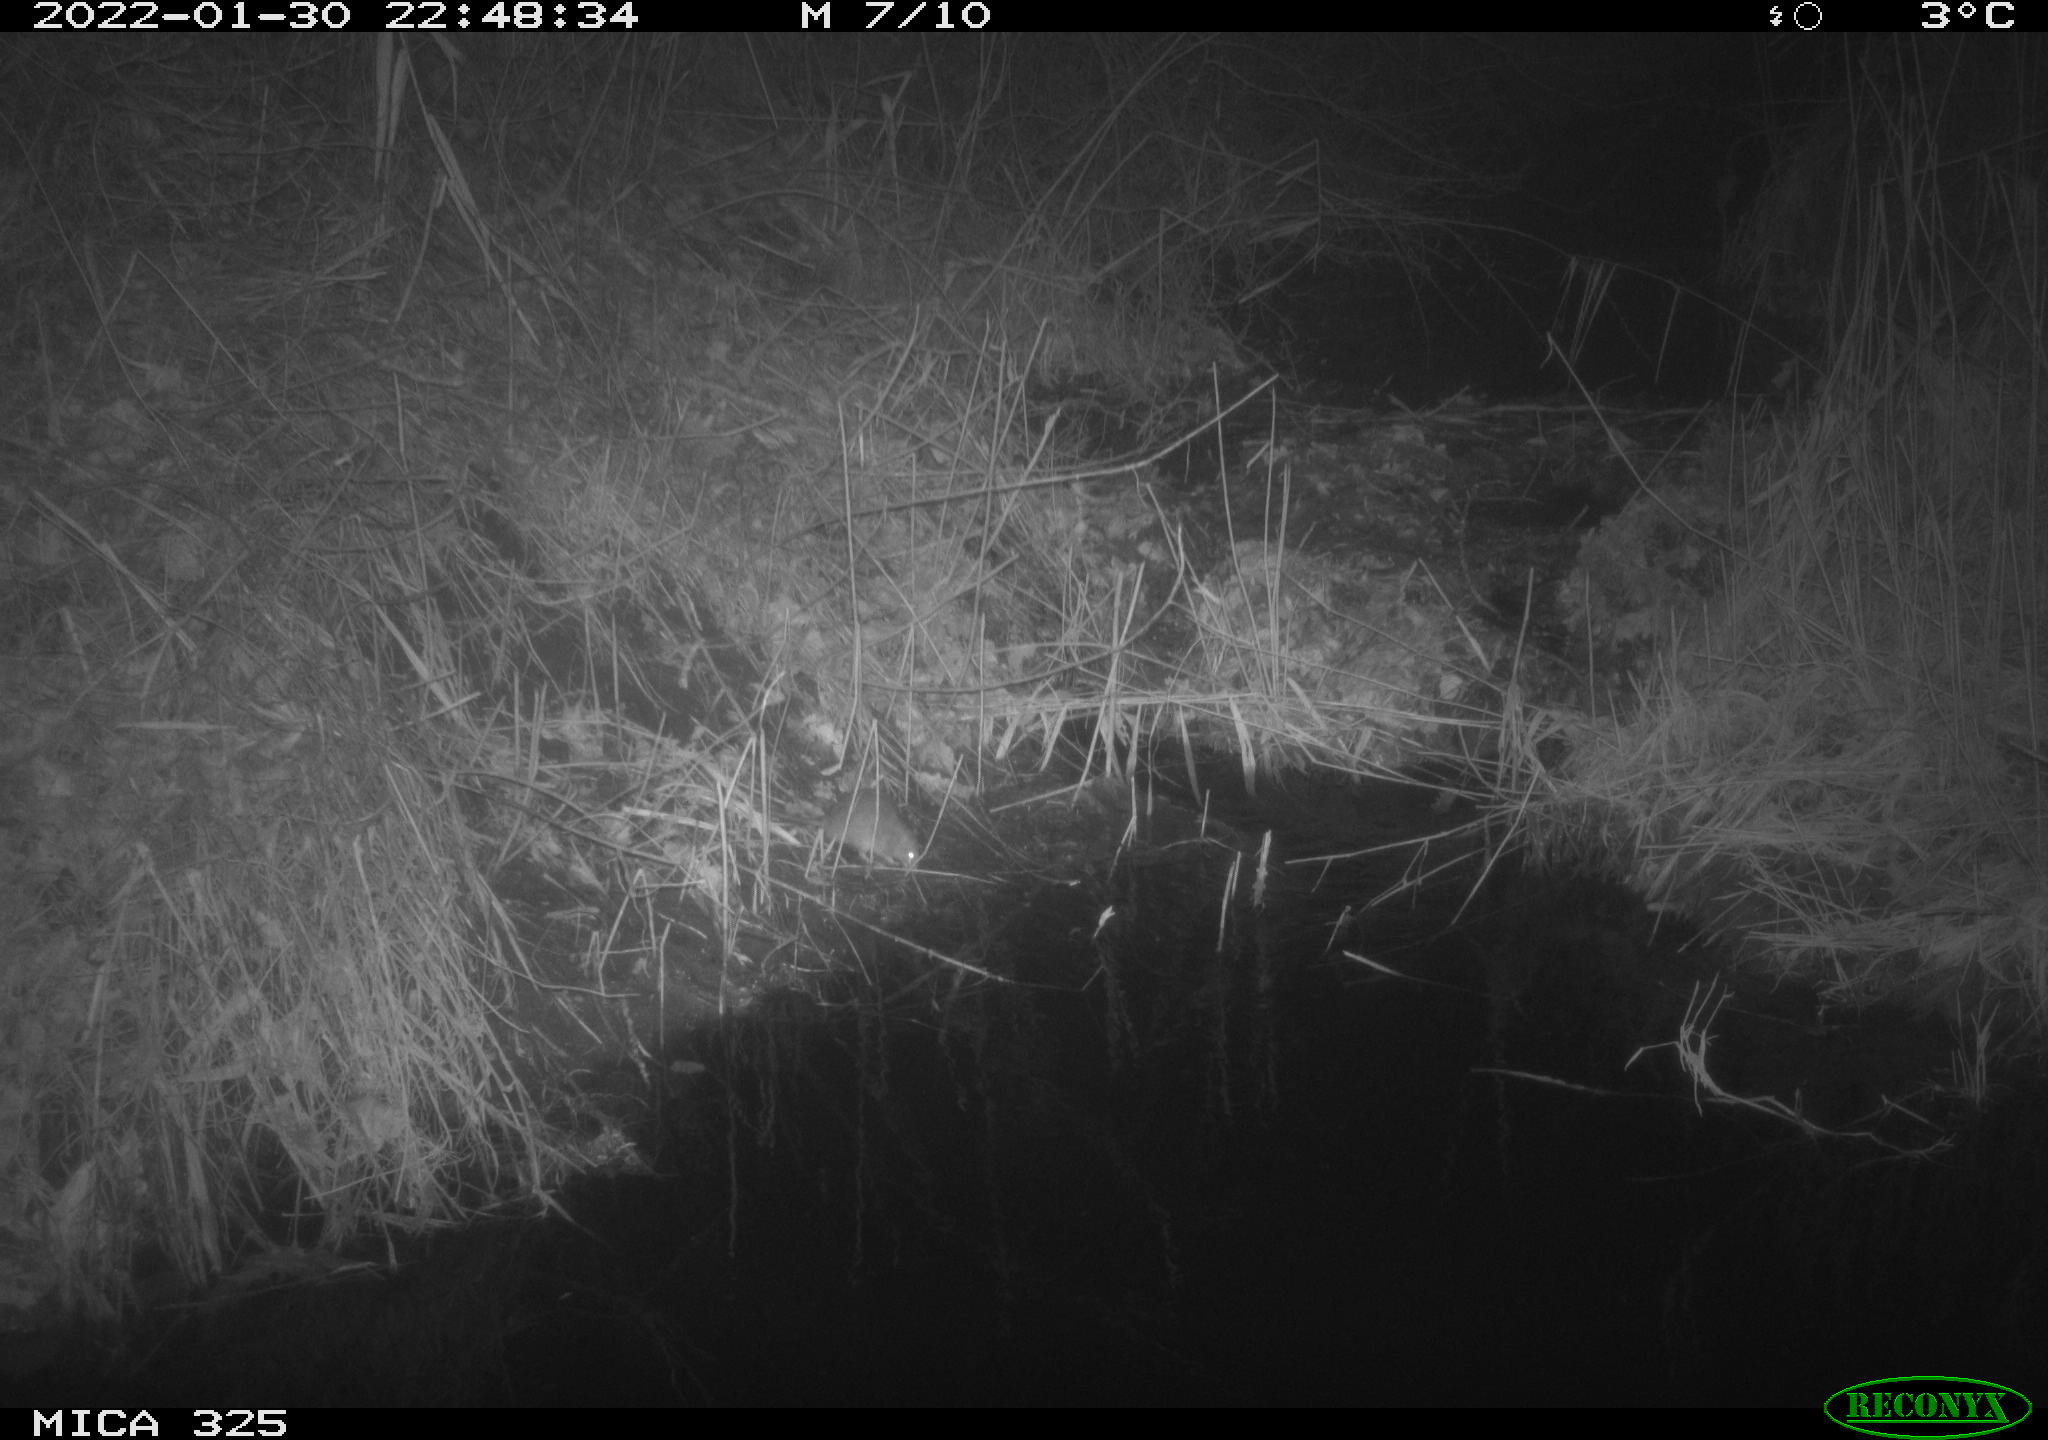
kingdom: Animalia
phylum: Chordata
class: Mammalia
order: Rodentia
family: Muridae
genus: Rattus
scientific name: Rattus norvegicus
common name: Brown rat
